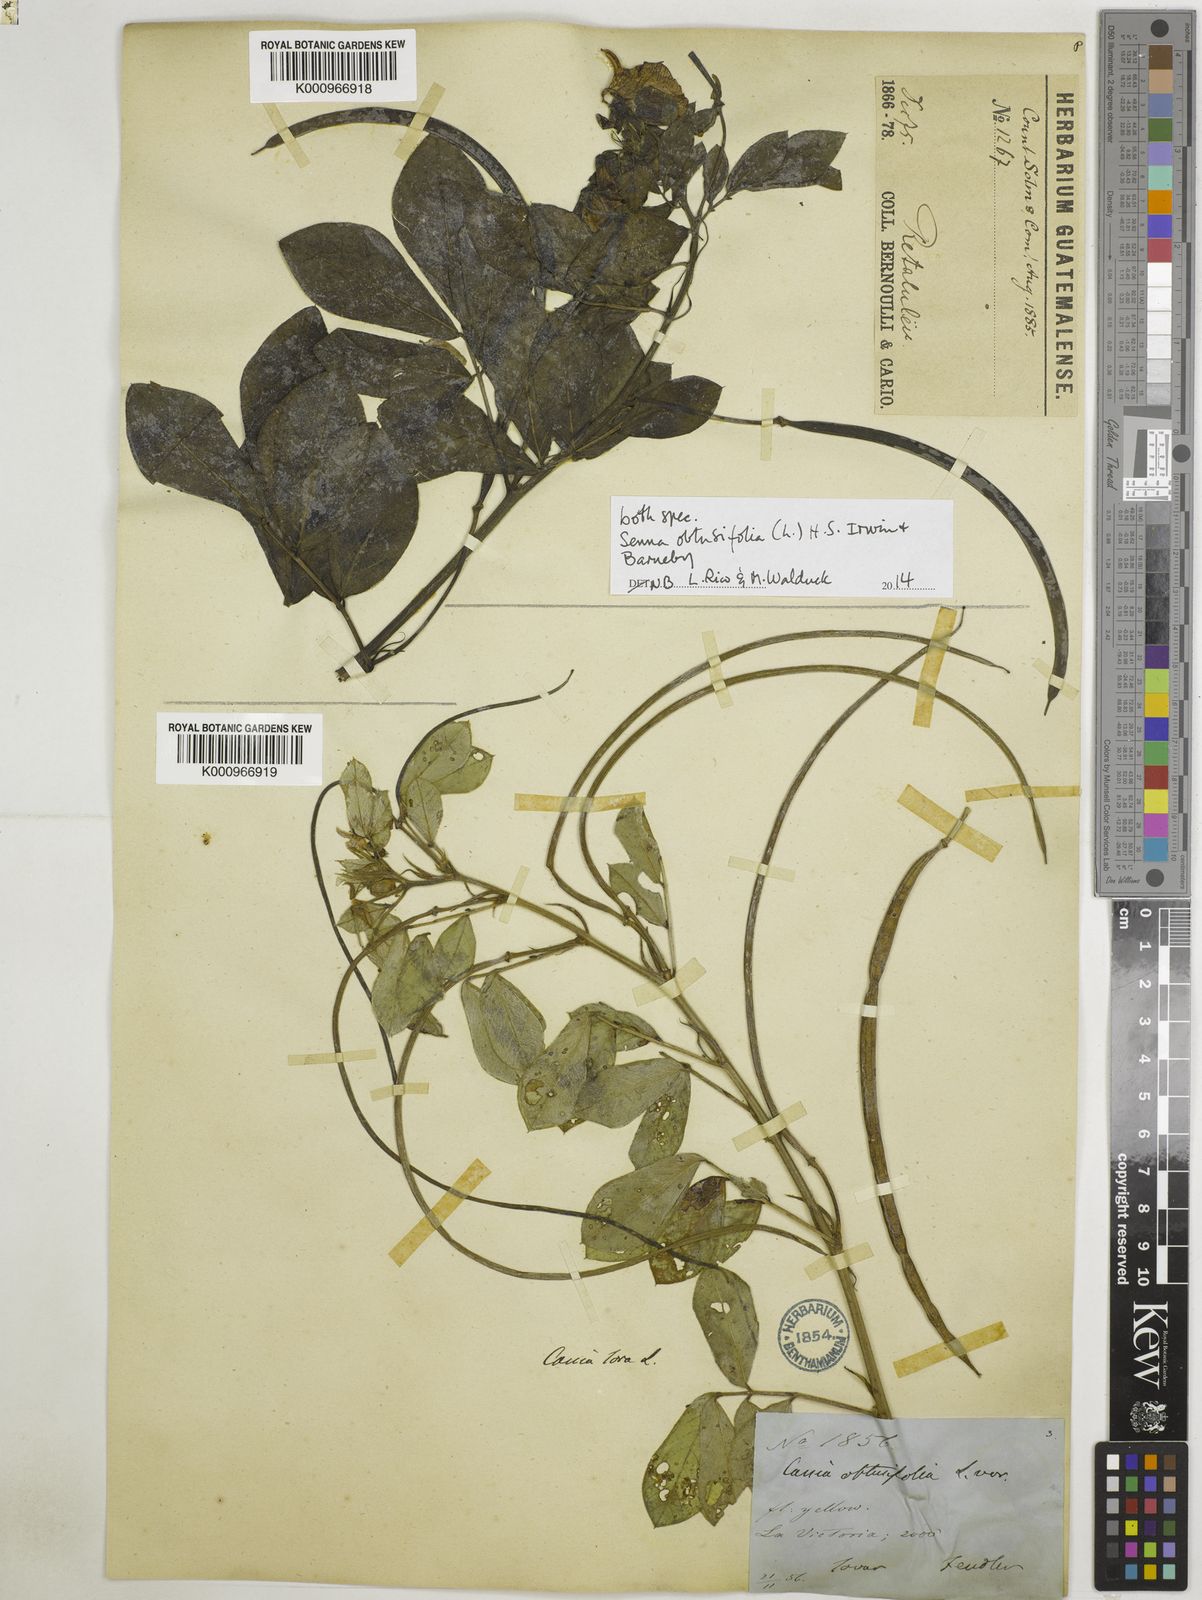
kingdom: Plantae
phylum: Tracheophyta
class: Magnoliopsida
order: Fabales
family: Fabaceae
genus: Senna
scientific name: Senna obtusifolia
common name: Java-bean
